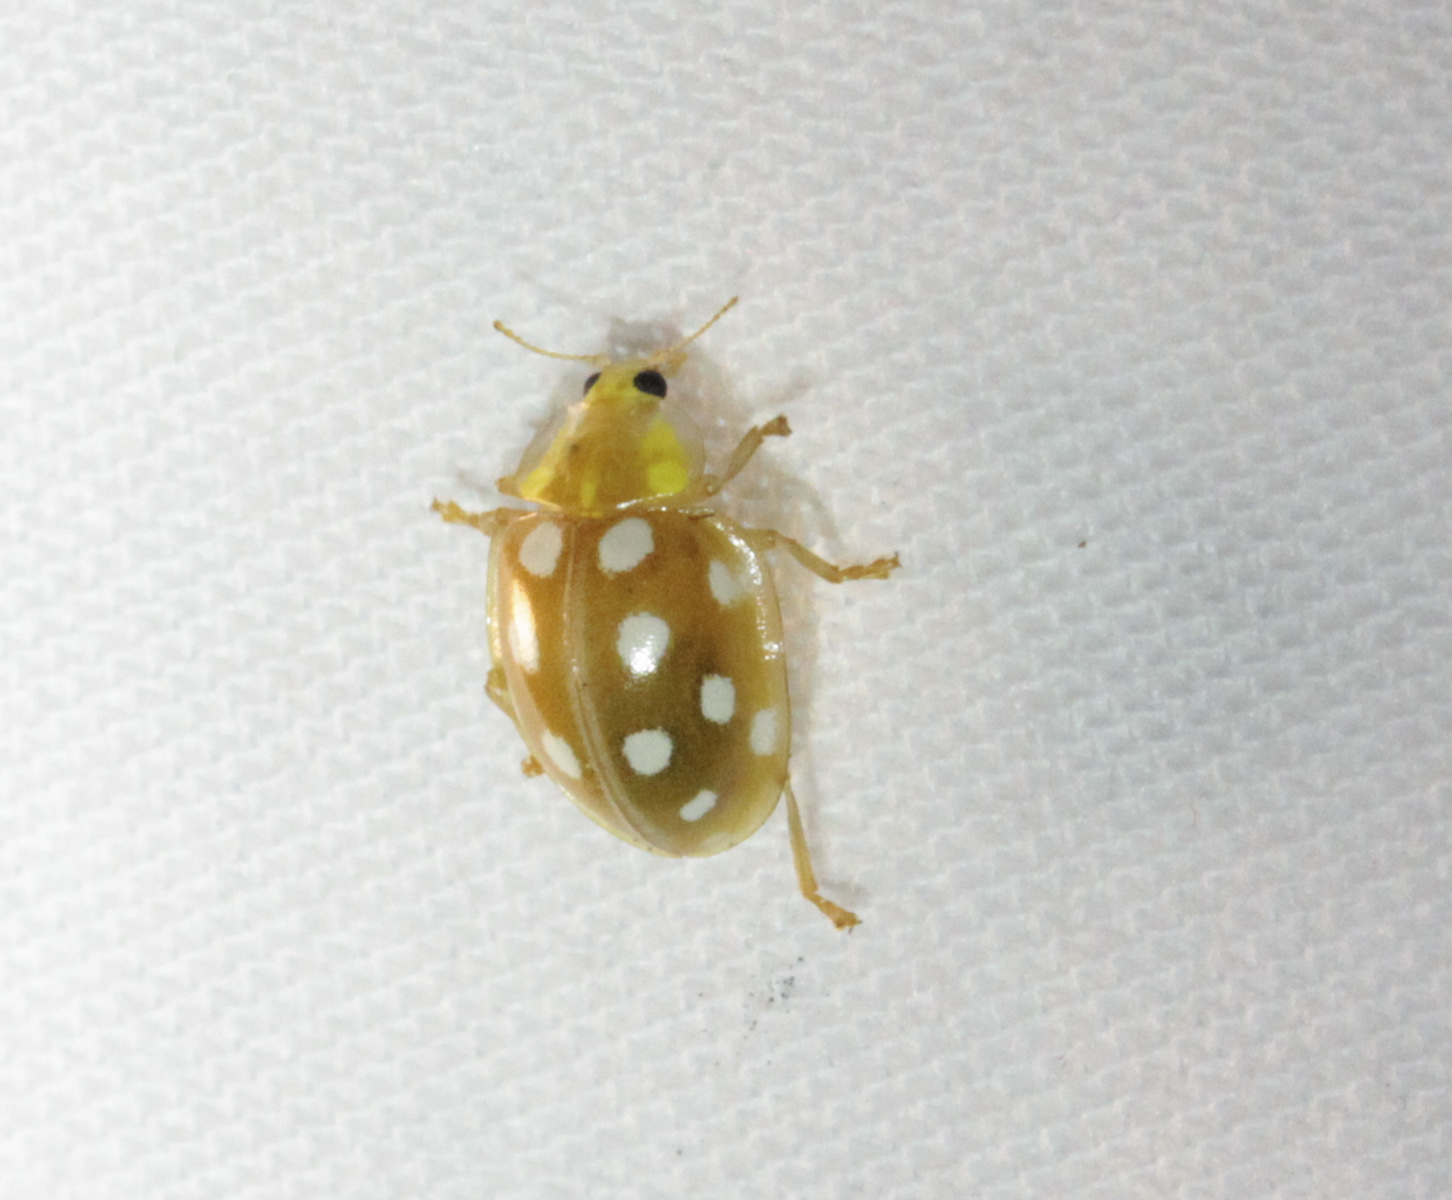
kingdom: Animalia
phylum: Arthropoda
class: Insecta
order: Coleoptera
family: Coccinellidae
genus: Halyzia
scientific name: Halyzia sedecimguttata
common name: Orange ladybird
